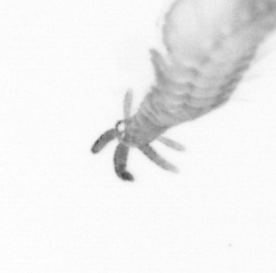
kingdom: Animalia
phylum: Annelida
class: Polychaeta
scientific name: Polychaeta
